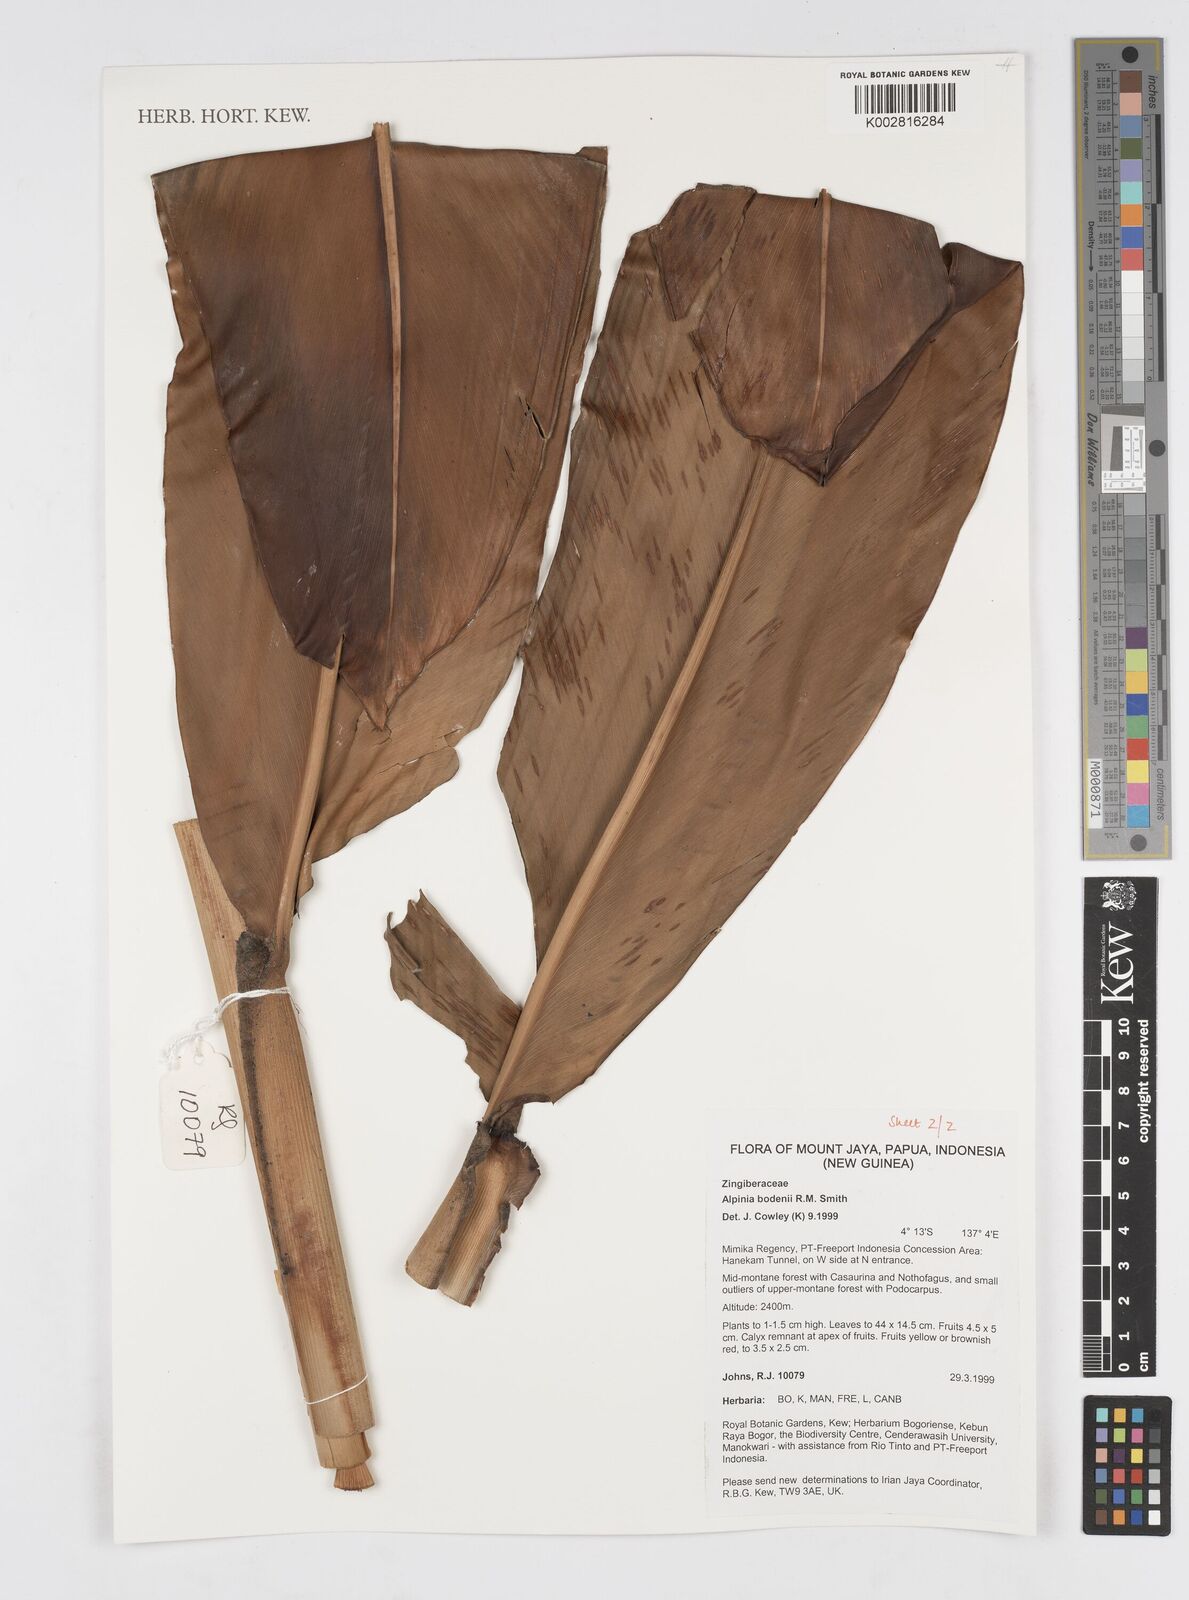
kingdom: Plantae
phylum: Tracheophyta
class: Liliopsida
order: Zingiberales
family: Zingiberaceae
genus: Alpinia
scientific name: Alpinia bodenii
